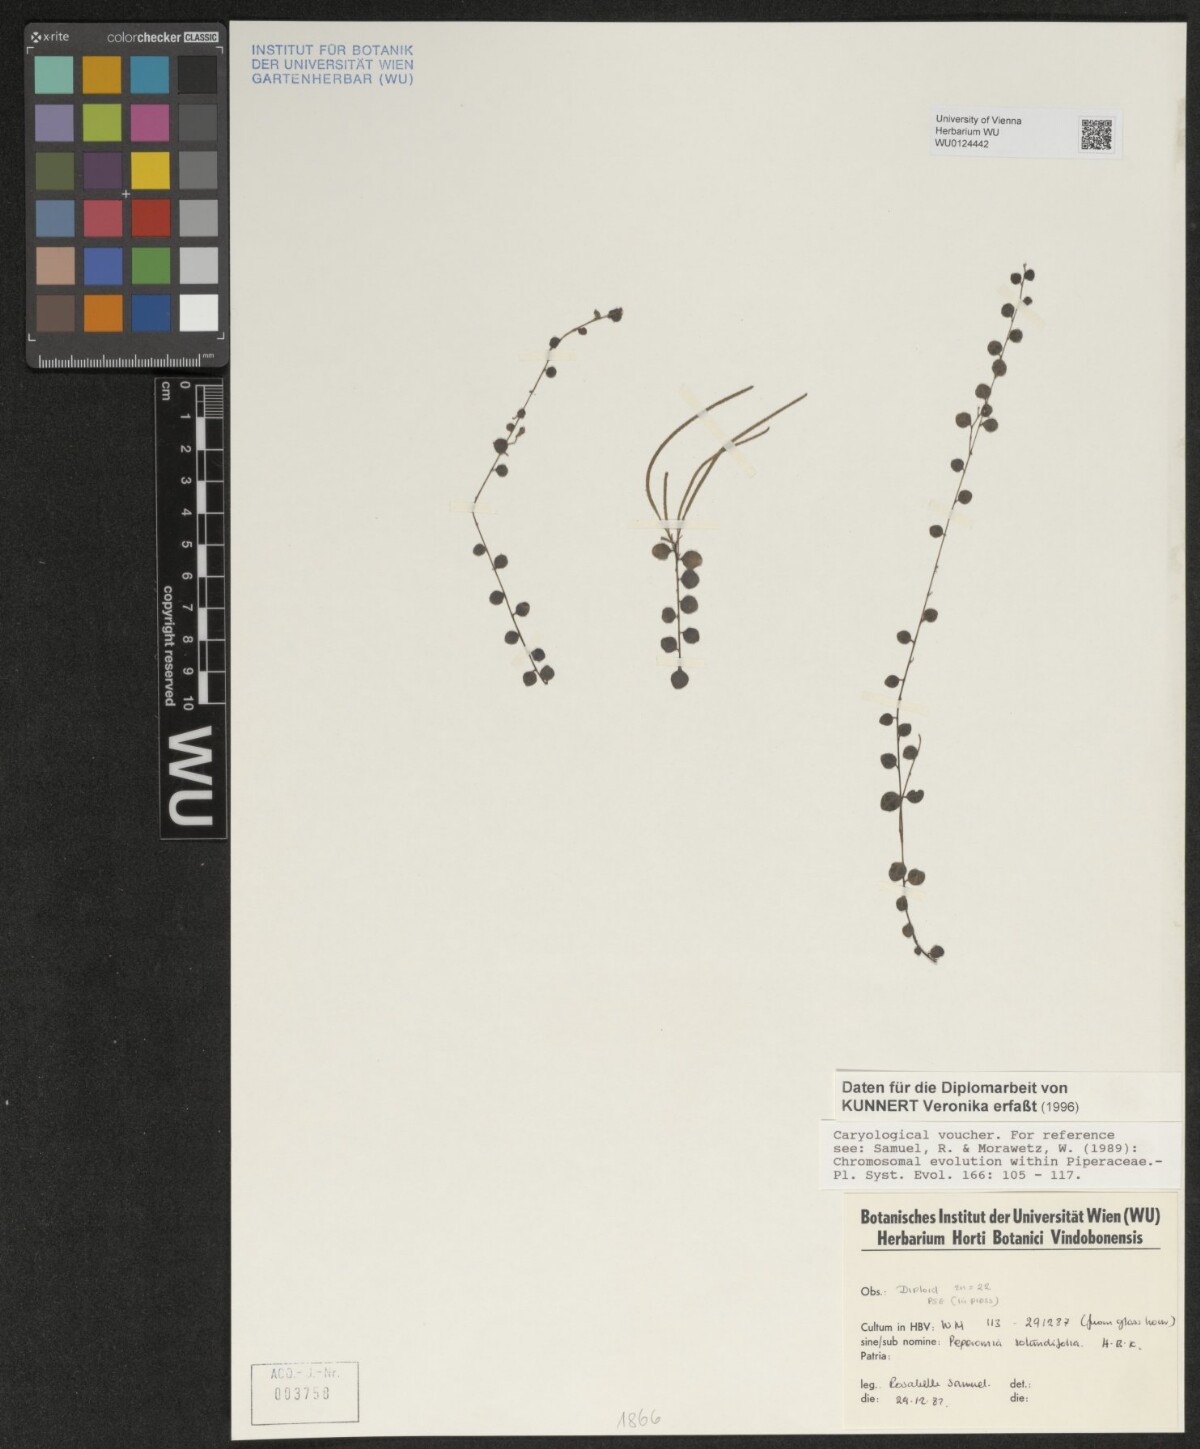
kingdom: Plantae
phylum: Tracheophyta
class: Magnoliopsida
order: Piperales
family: Piperaceae
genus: Peperomia
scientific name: Peperomia rotundifolia
